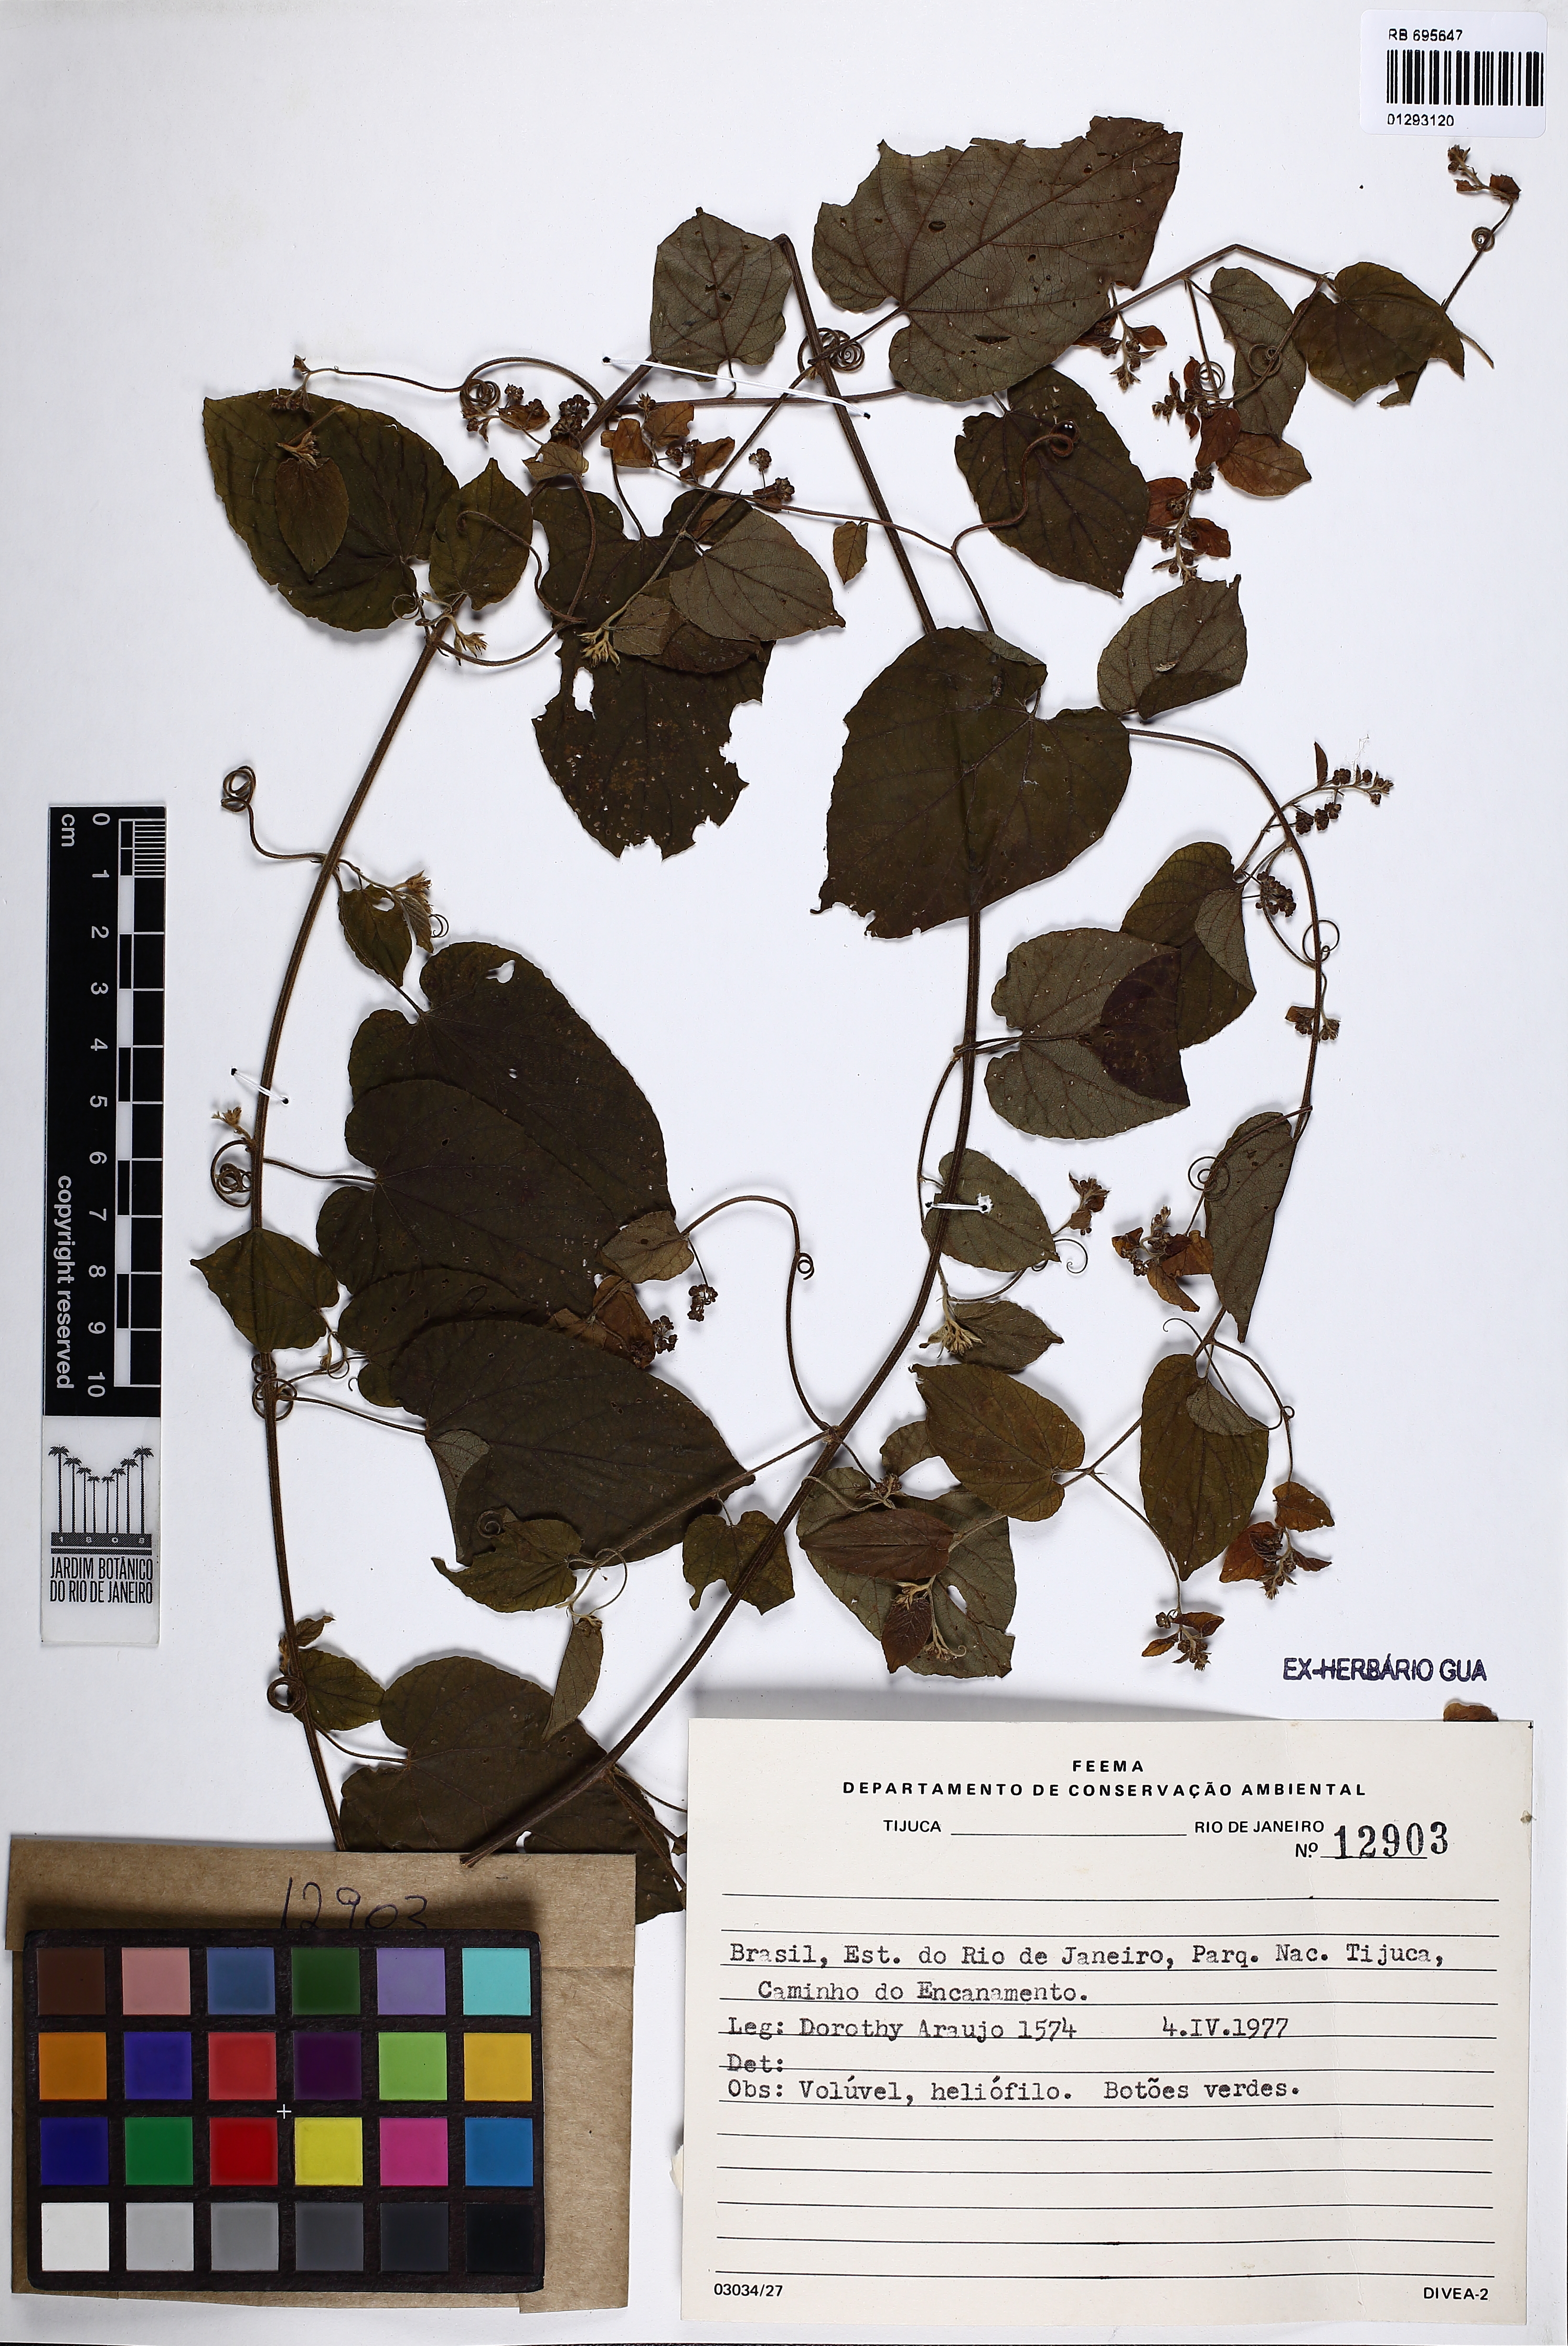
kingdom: Plantae
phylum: Tracheophyta
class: Magnoliopsida
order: Rosales
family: Rhamnaceae
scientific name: Rhamnaceae
